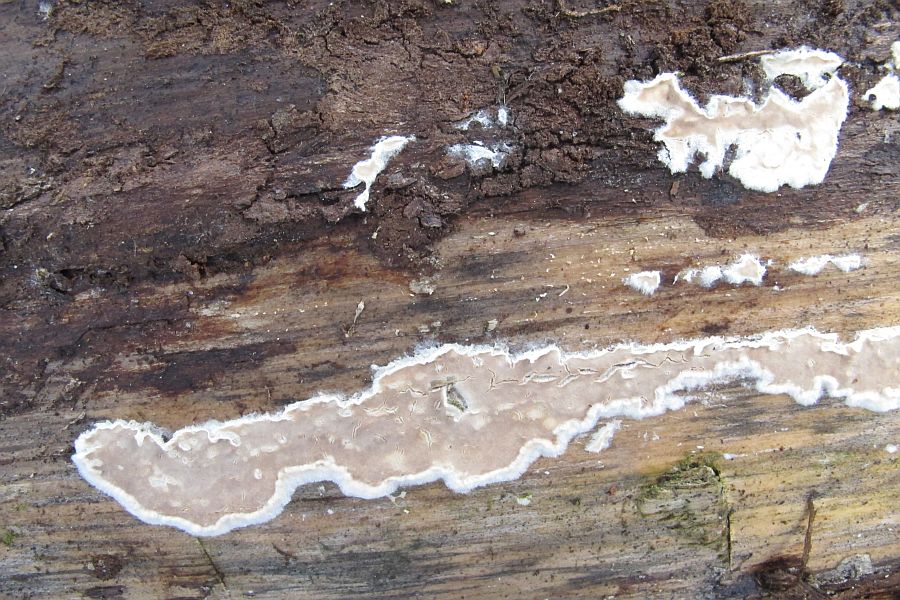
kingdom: Fungi
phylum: Basidiomycota
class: Agaricomycetes
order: Agaricales
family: Physalacriaceae
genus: Cylindrobasidium
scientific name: Cylindrobasidium evolvens
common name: sprækkehinde
